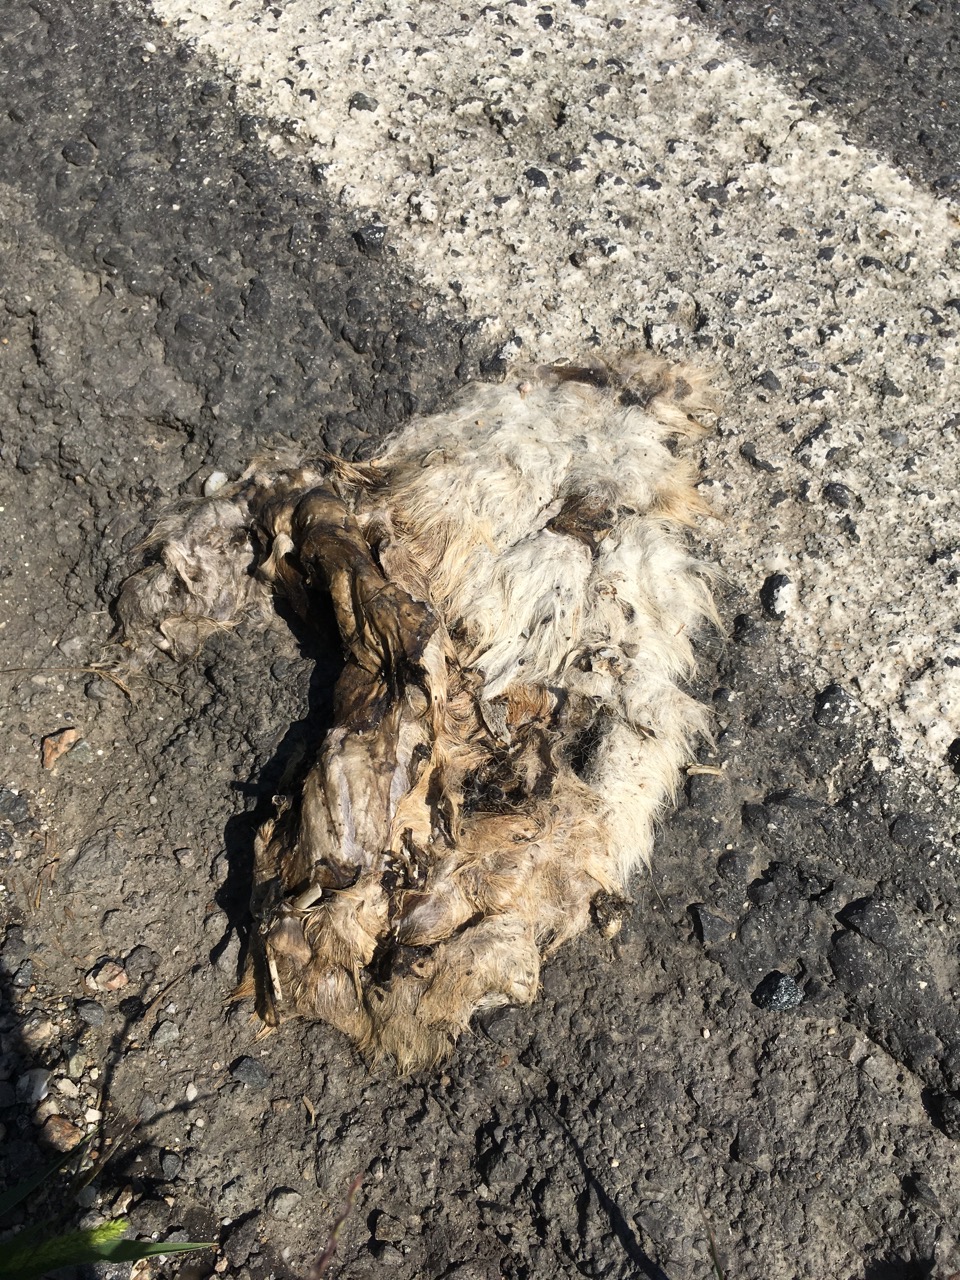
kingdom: Animalia
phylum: Chordata
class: Mammalia
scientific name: Mammalia
